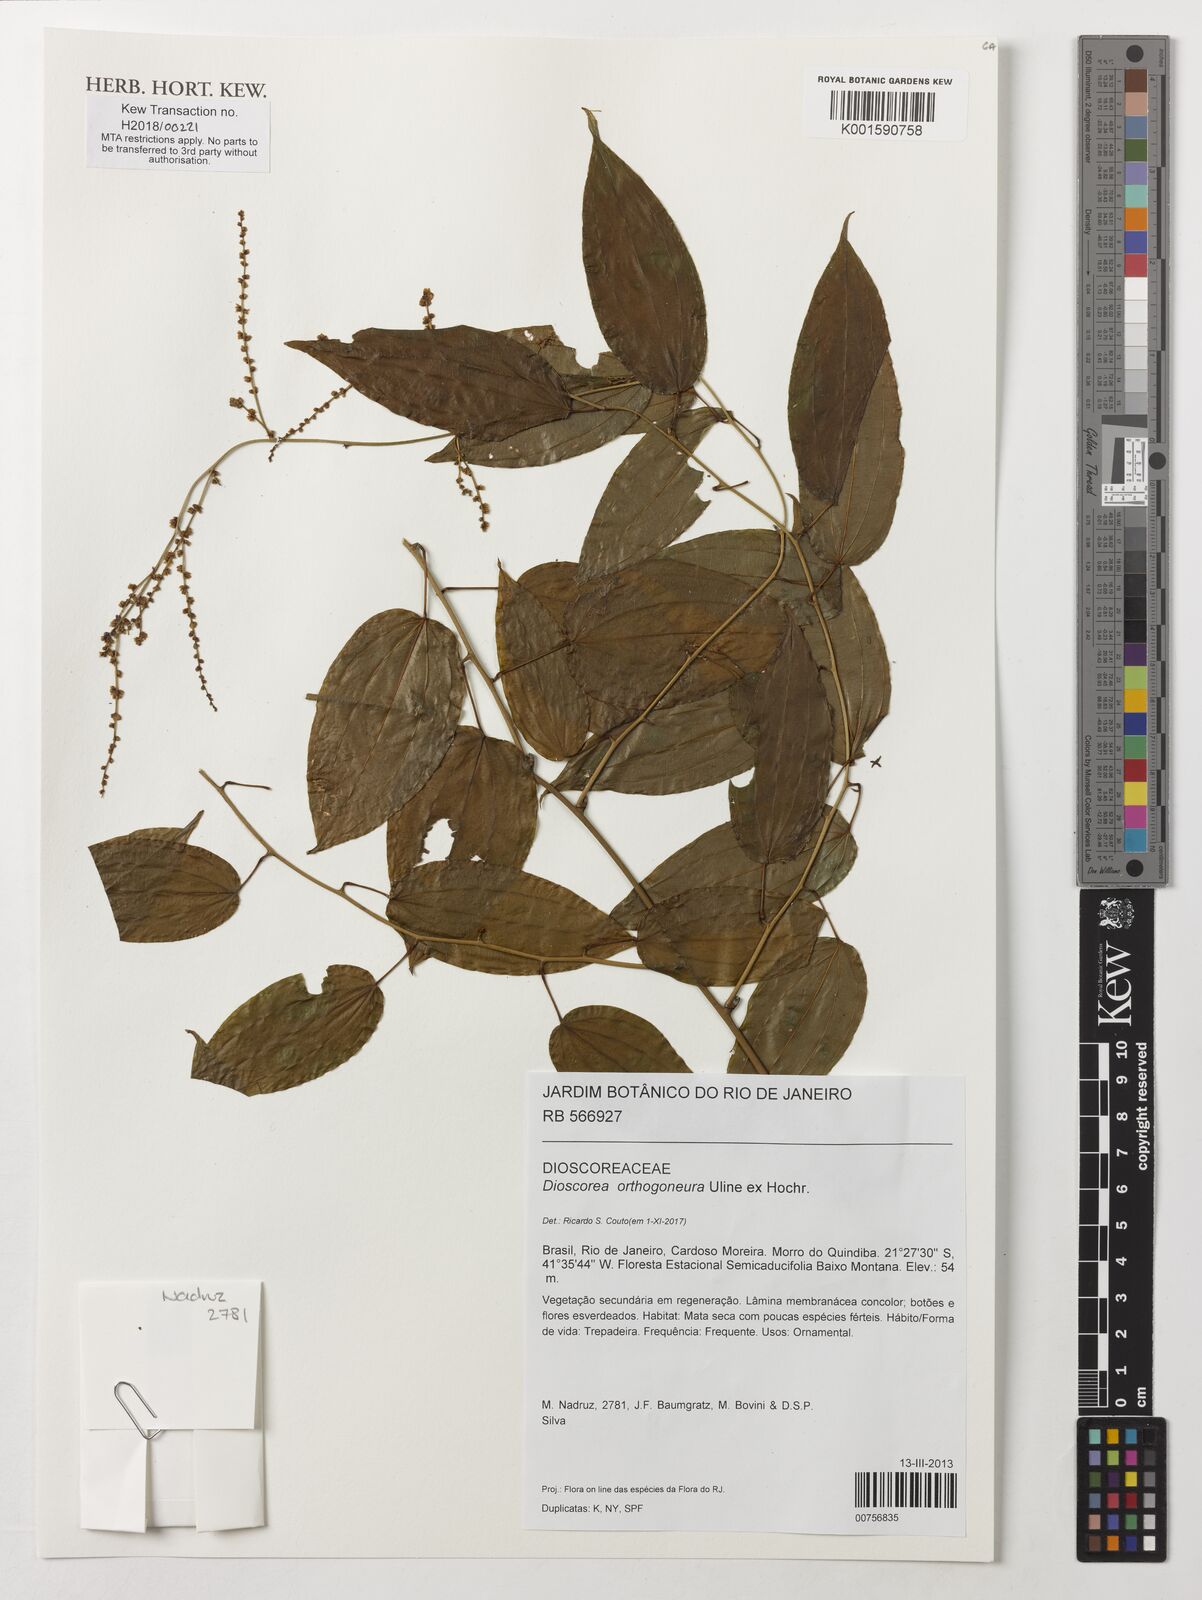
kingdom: Plantae
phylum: Tracheophyta
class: Liliopsida
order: Dioscoreales
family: Dioscoreaceae
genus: Dioscorea
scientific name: Dioscorea orthogoneura
